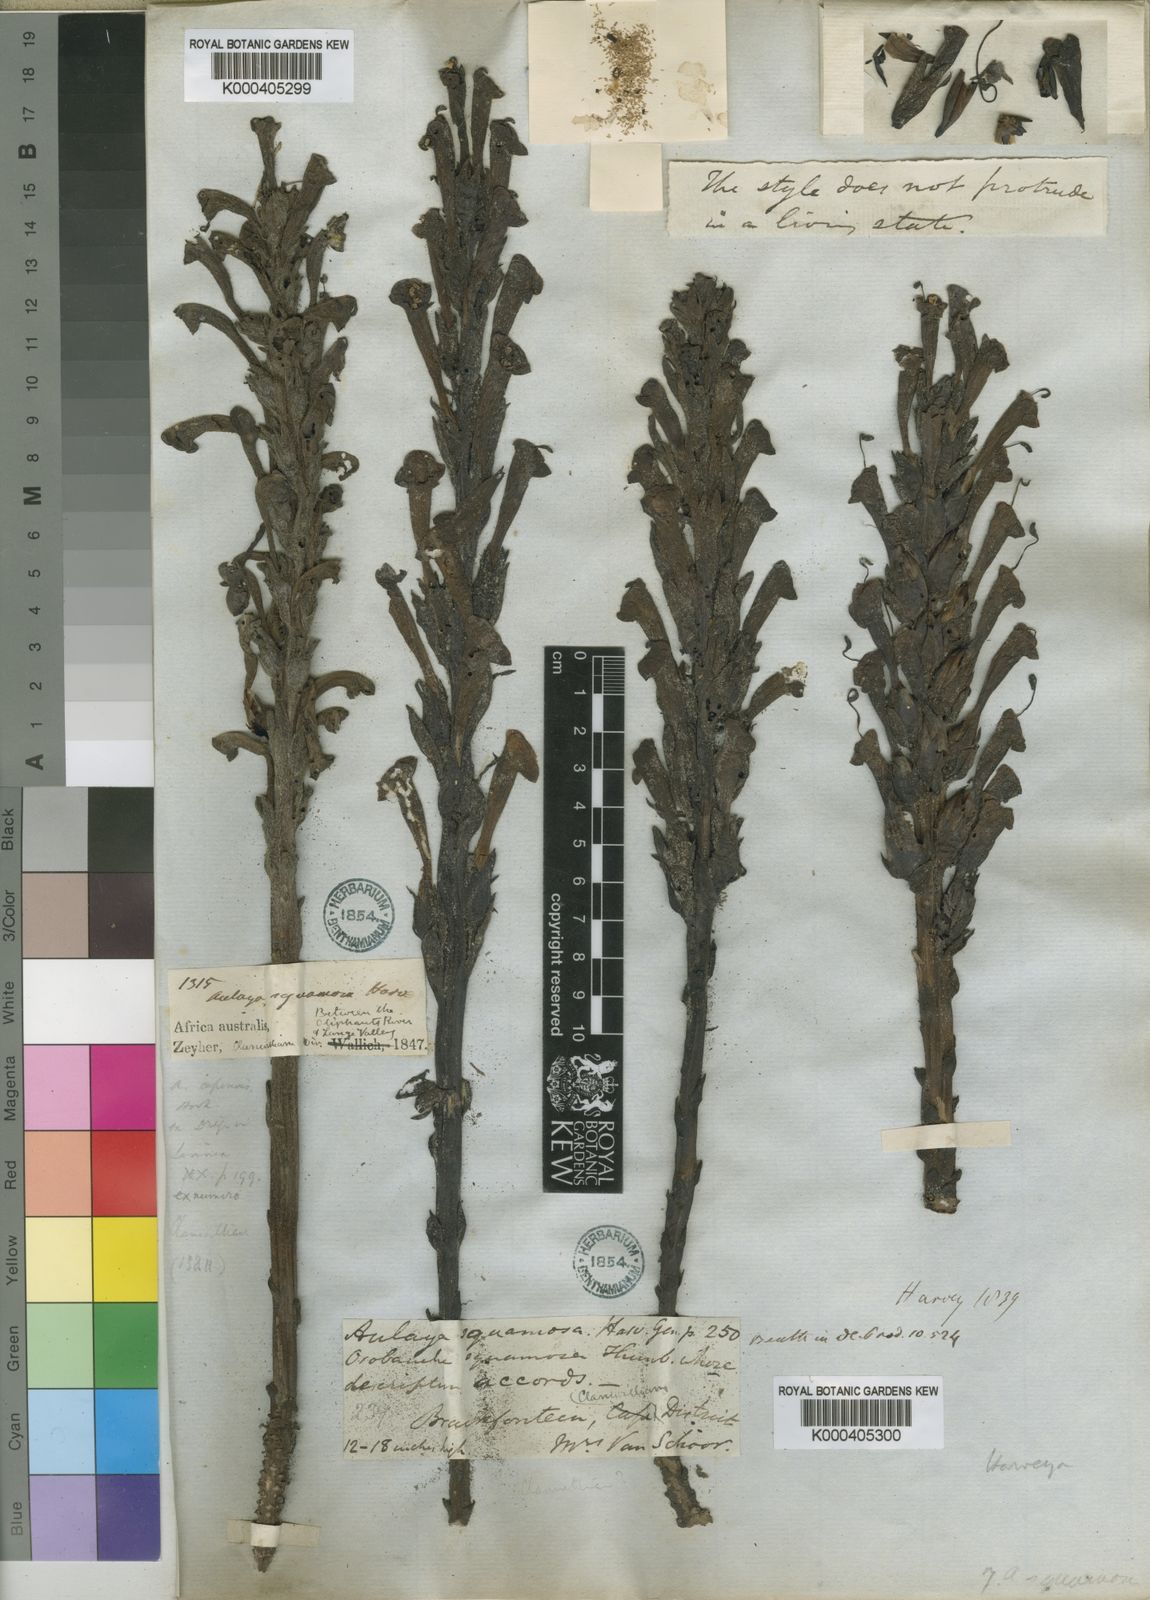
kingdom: Plantae
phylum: Tracheophyta
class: Magnoliopsida
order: Lamiales
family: Orobanchaceae
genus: Harveya
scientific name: Harveya squamosa
